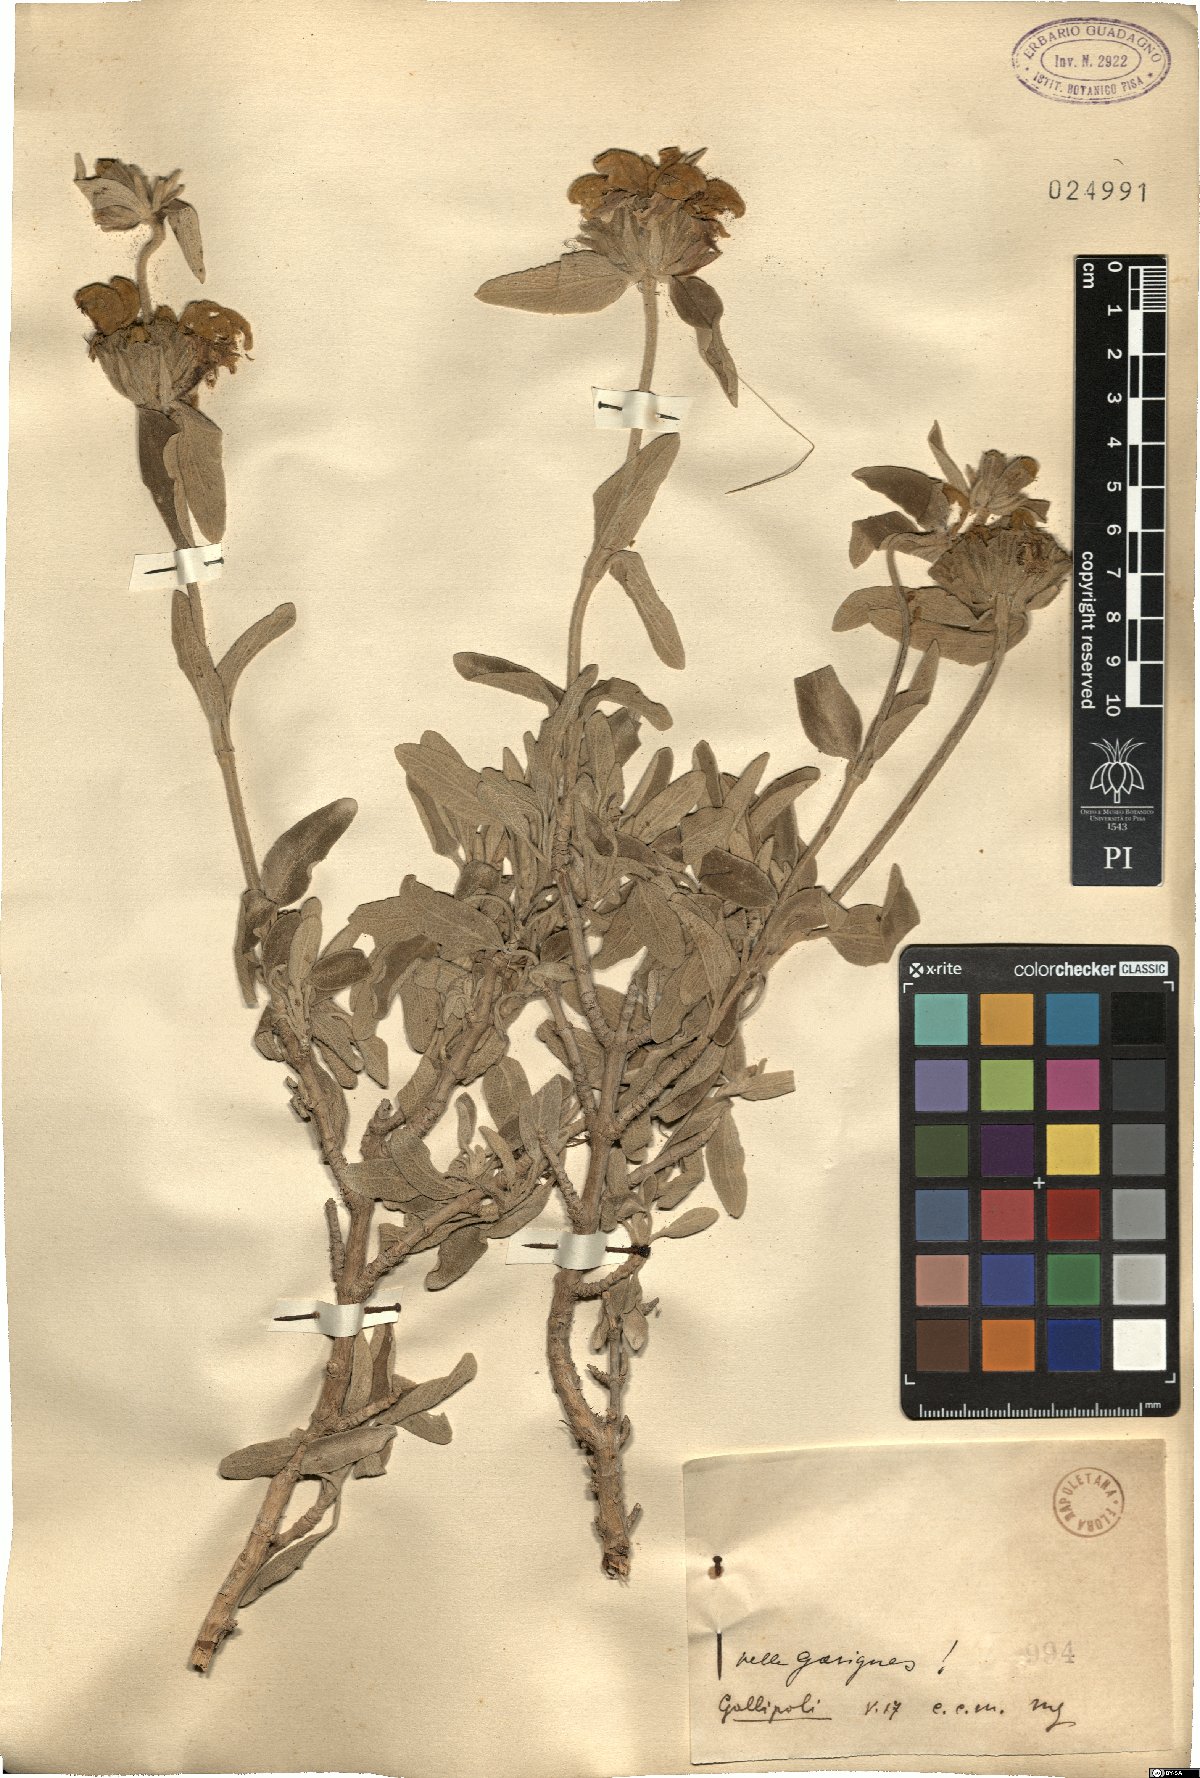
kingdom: Plantae
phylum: Tracheophyta
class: Magnoliopsida
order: Lamiales
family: Lamiaceae
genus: Phlomis
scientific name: Phlomis
